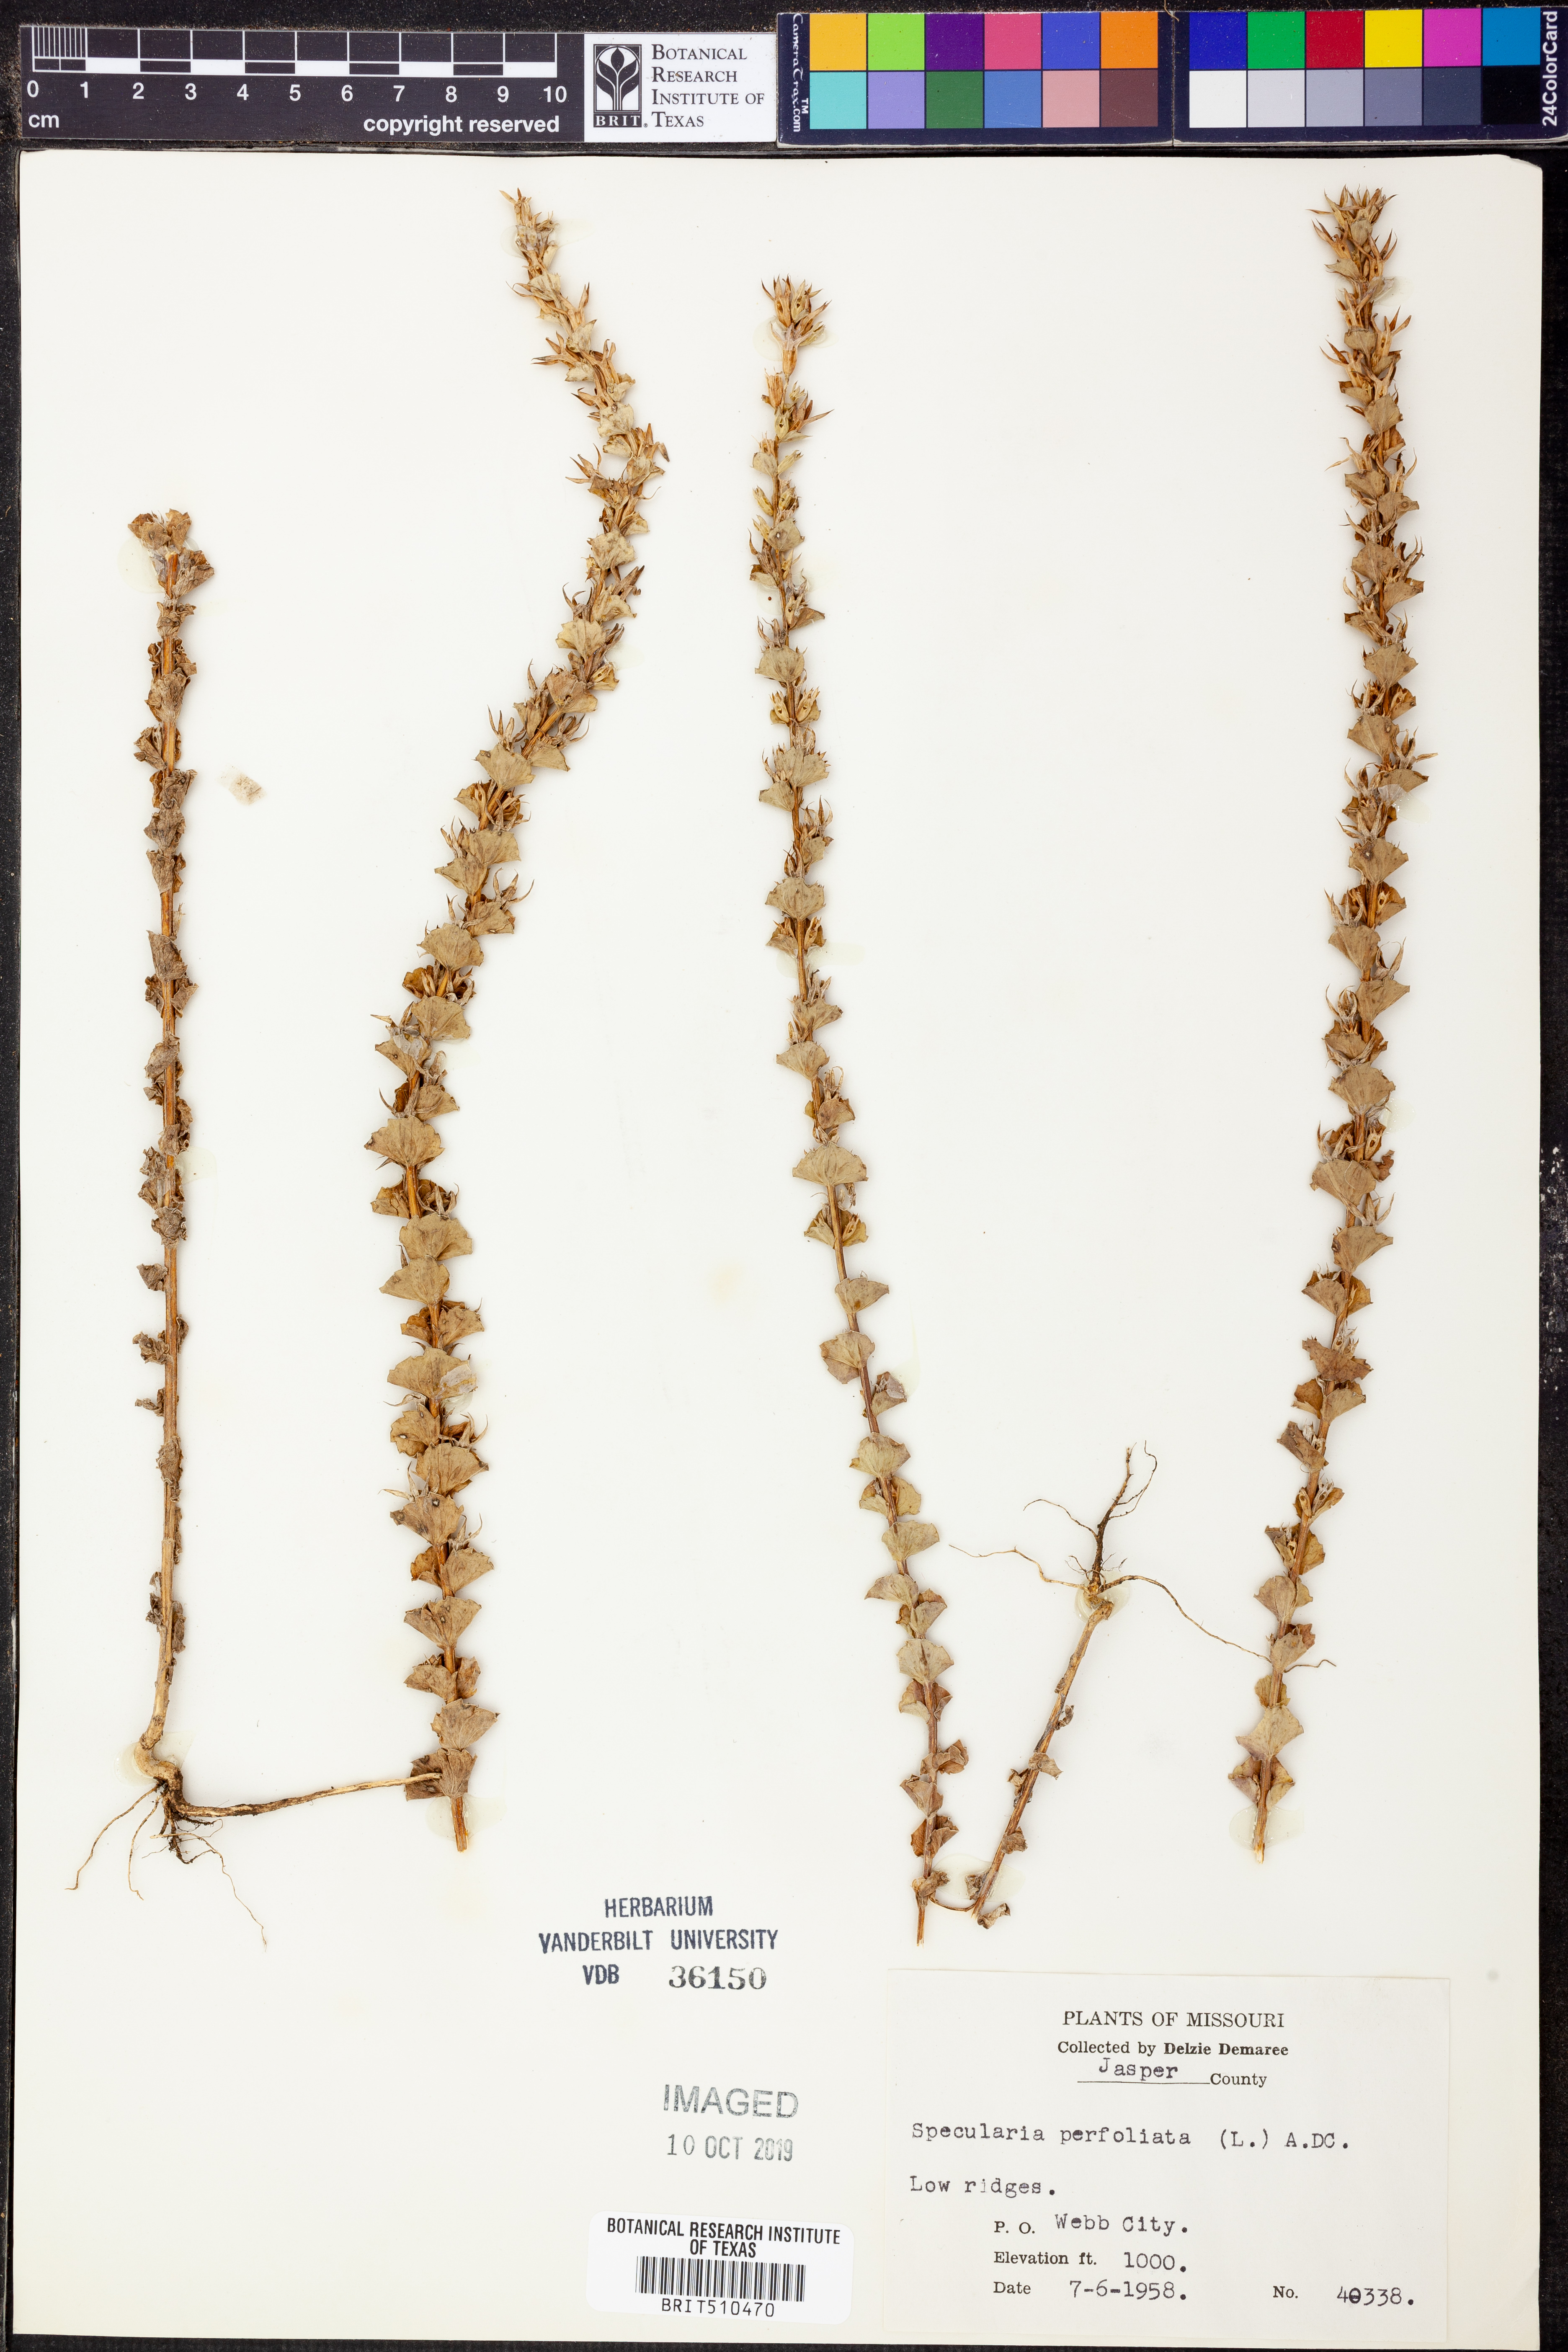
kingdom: Plantae
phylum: Tracheophyta
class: Magnoliopsida
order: Asterales
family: Campanulaceae
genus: Triodanis
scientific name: Triodanis perfoliata
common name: Clasping venus' looking-glass
